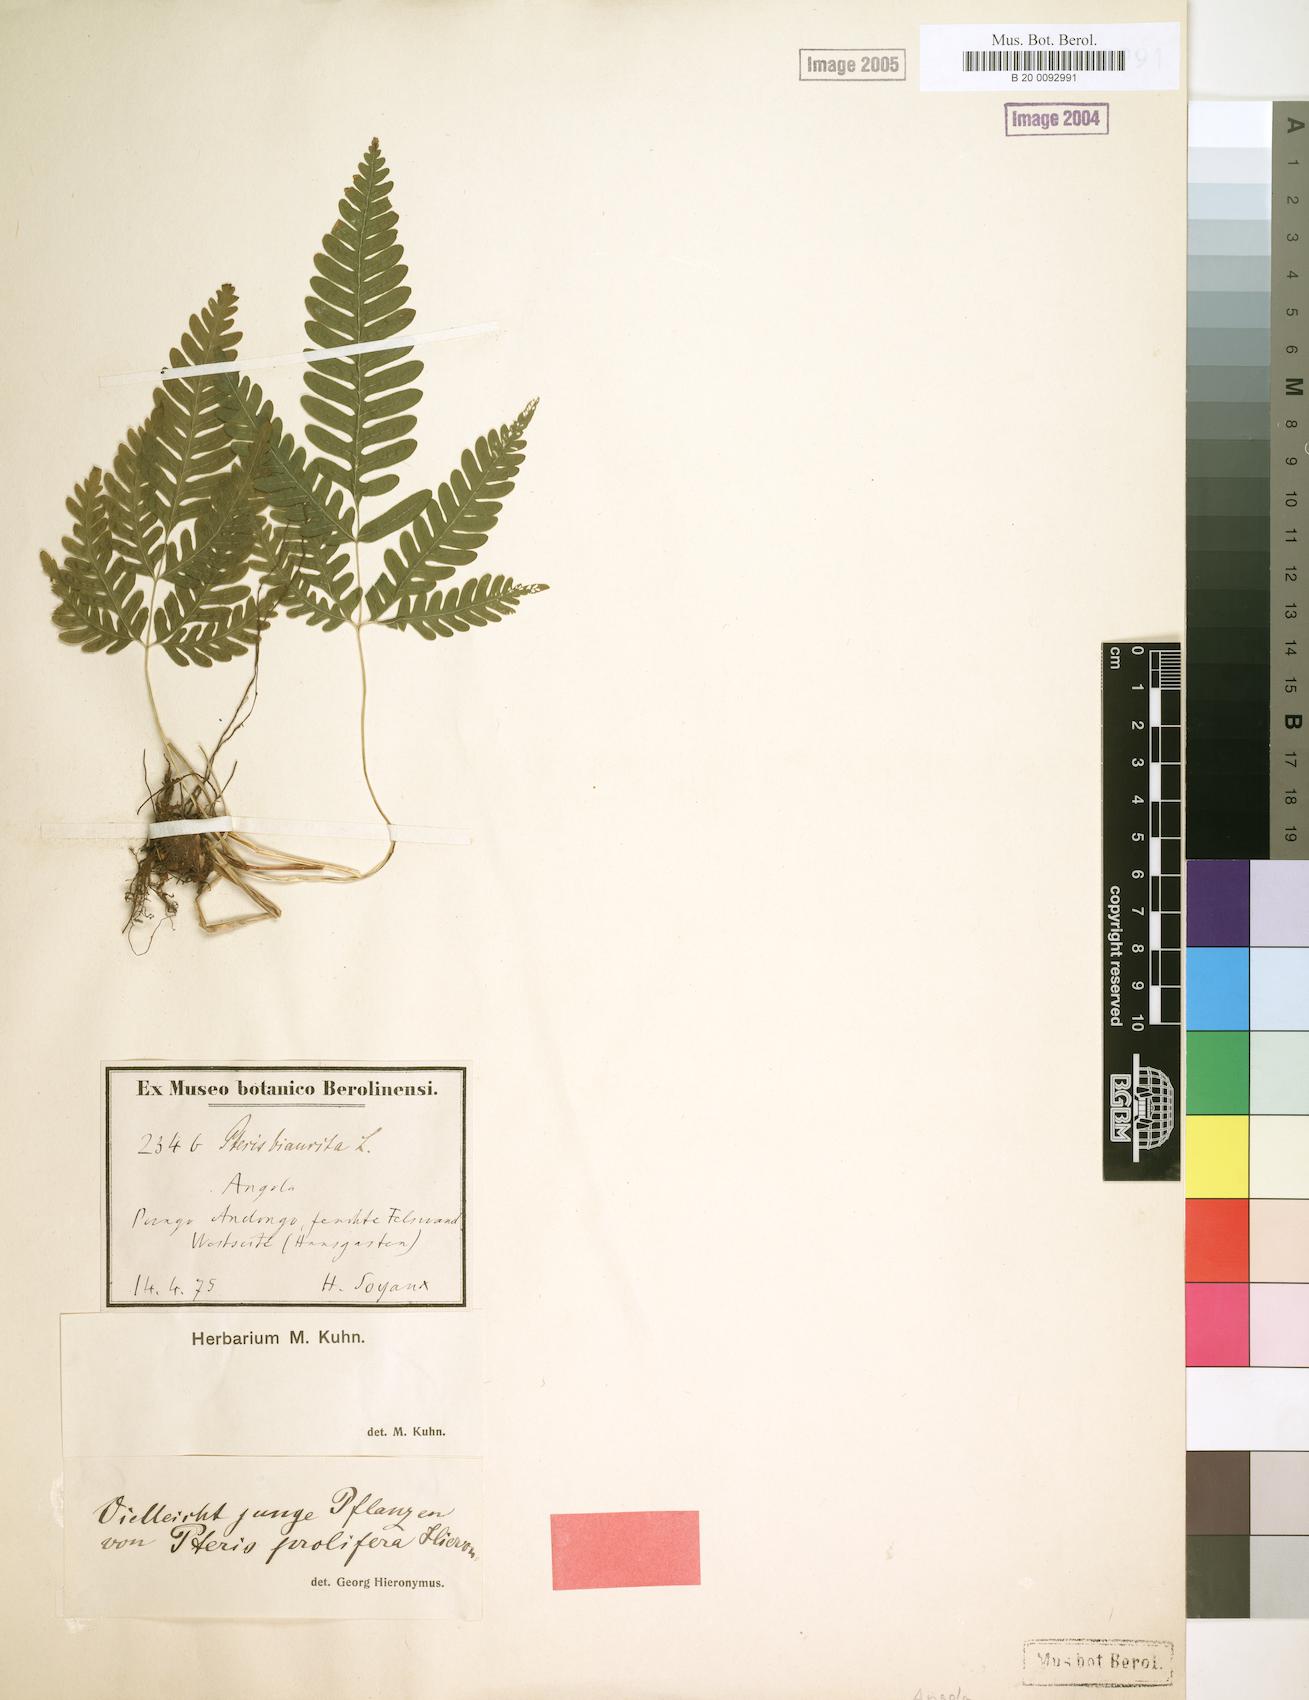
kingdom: Plantae
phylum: Tracheophyta
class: Polypodiopsida
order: Polypodiales
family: Pteridaceae
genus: Pteris
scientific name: Pteris preussii
